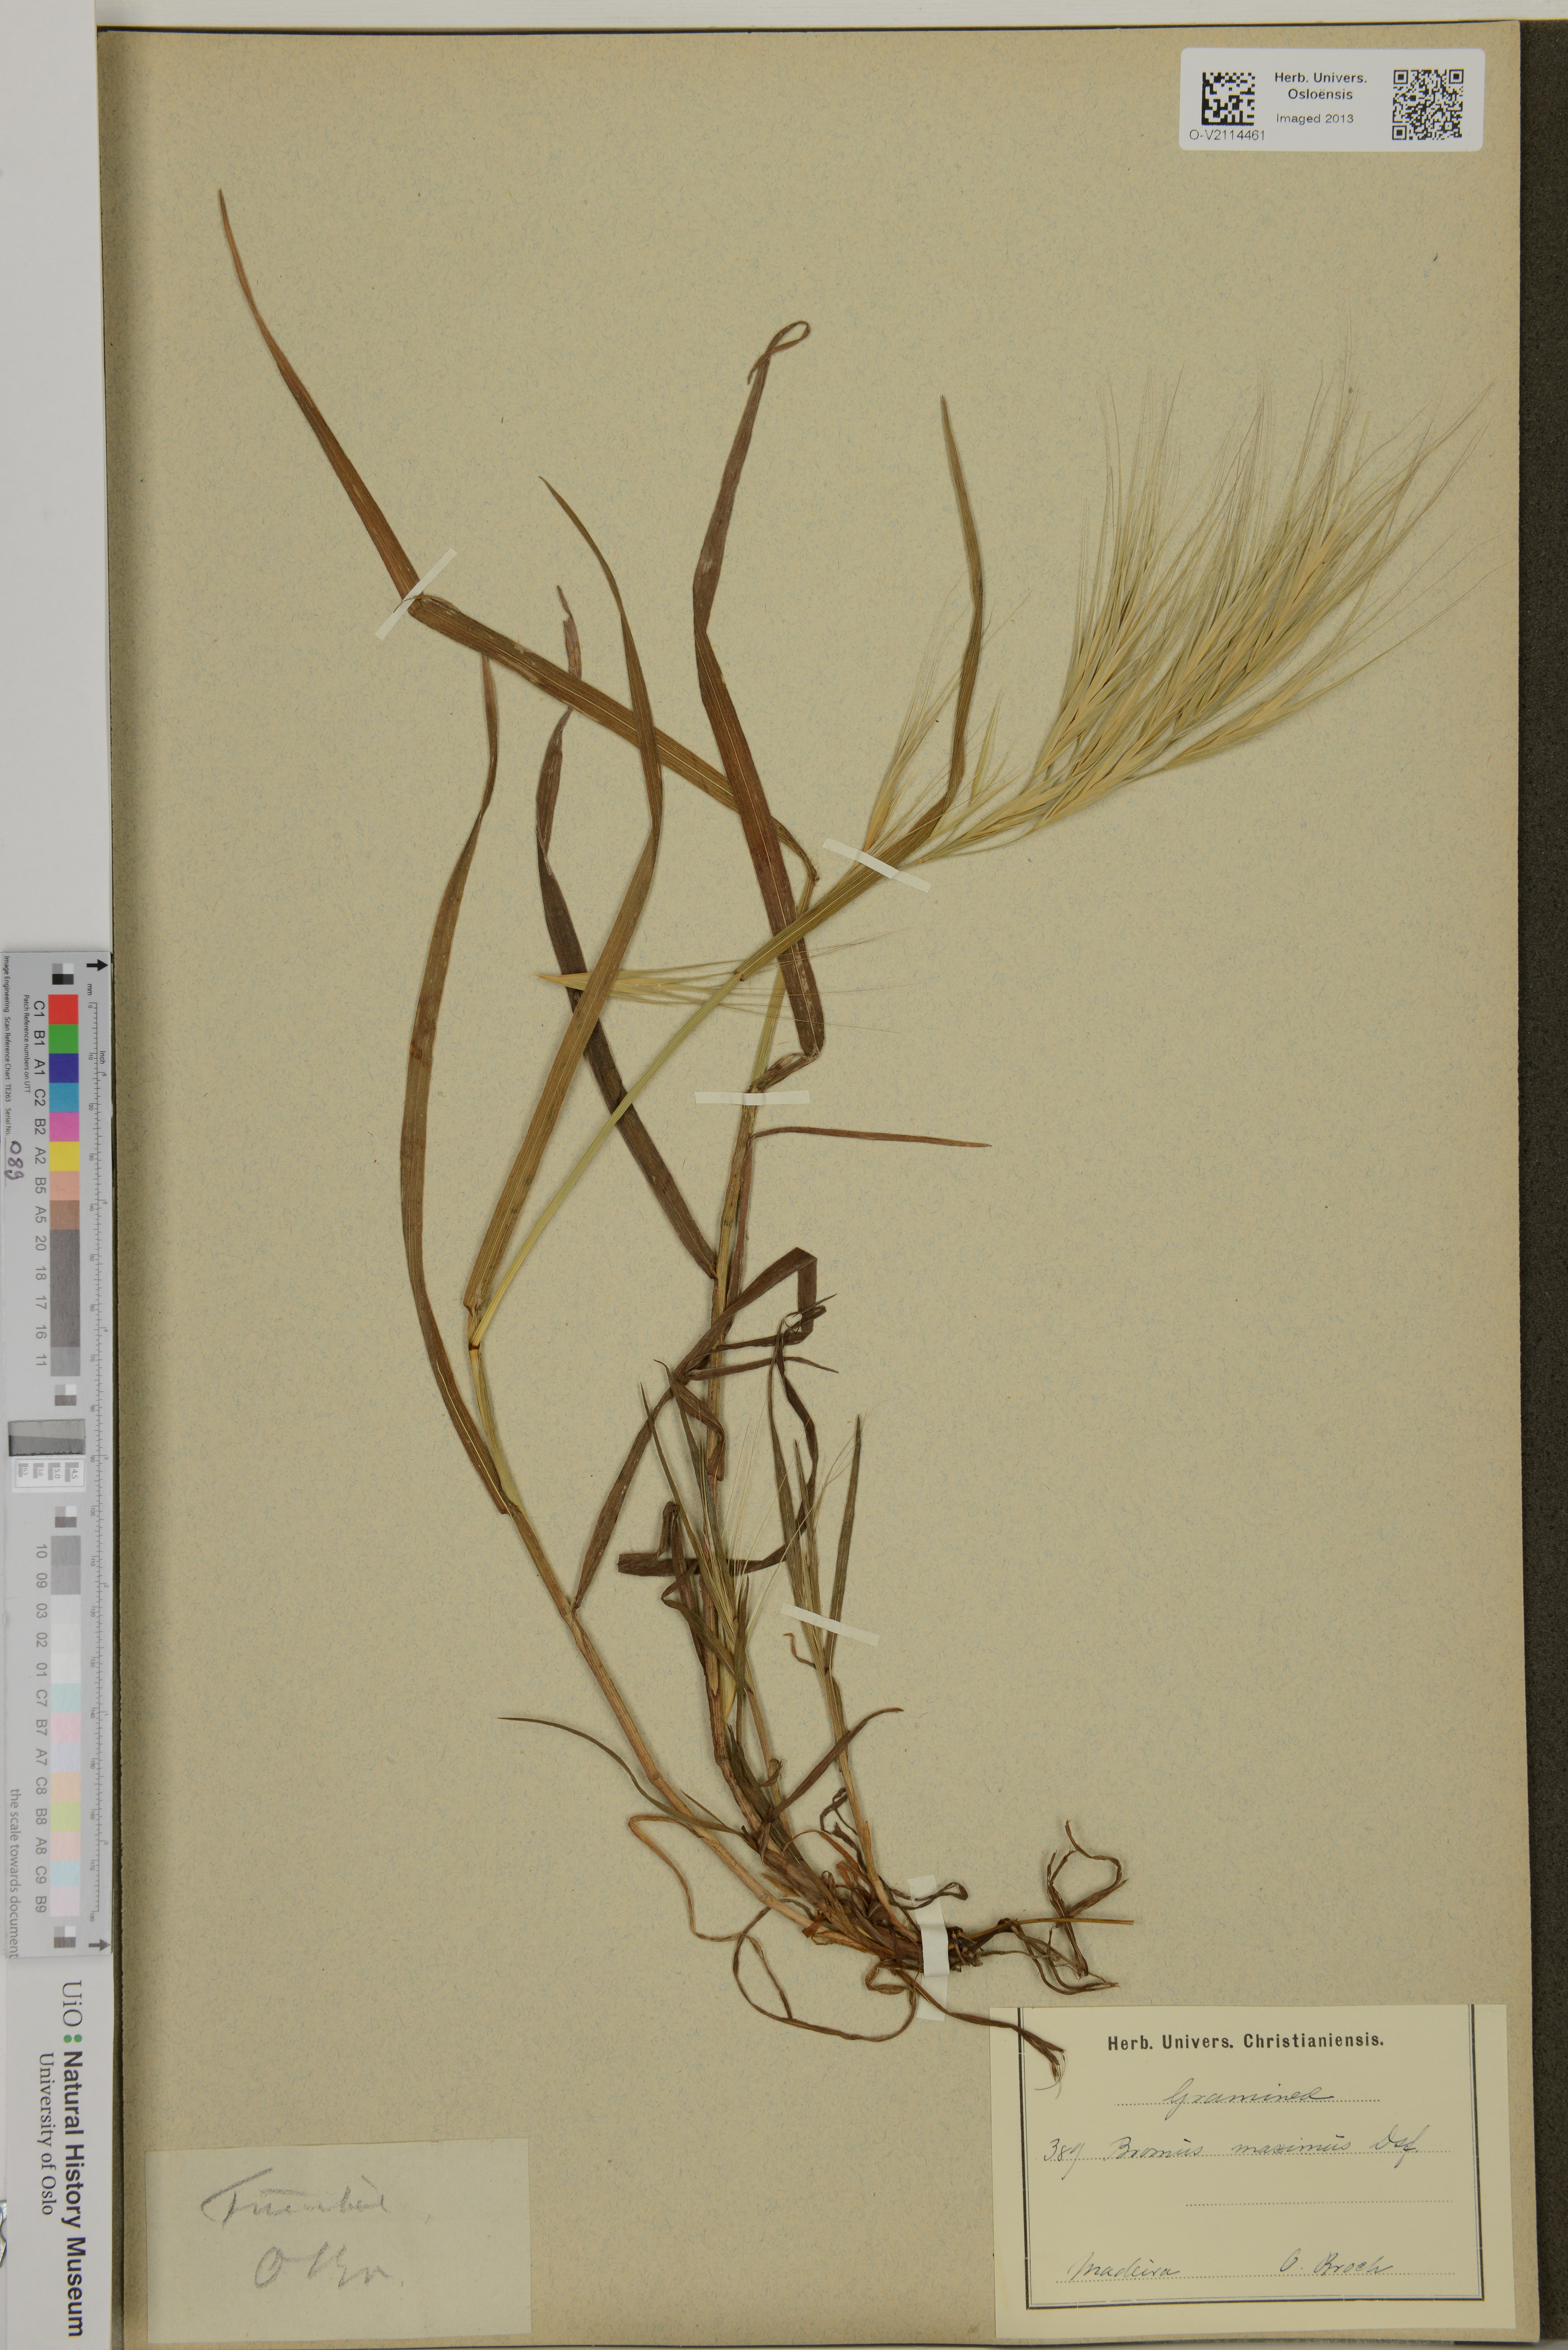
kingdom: Plantae
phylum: Tracheophyta
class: Liliopsida
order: Poales
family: Poaceae
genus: Bromus
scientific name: Bromus diandrus
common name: Ripgut brome
